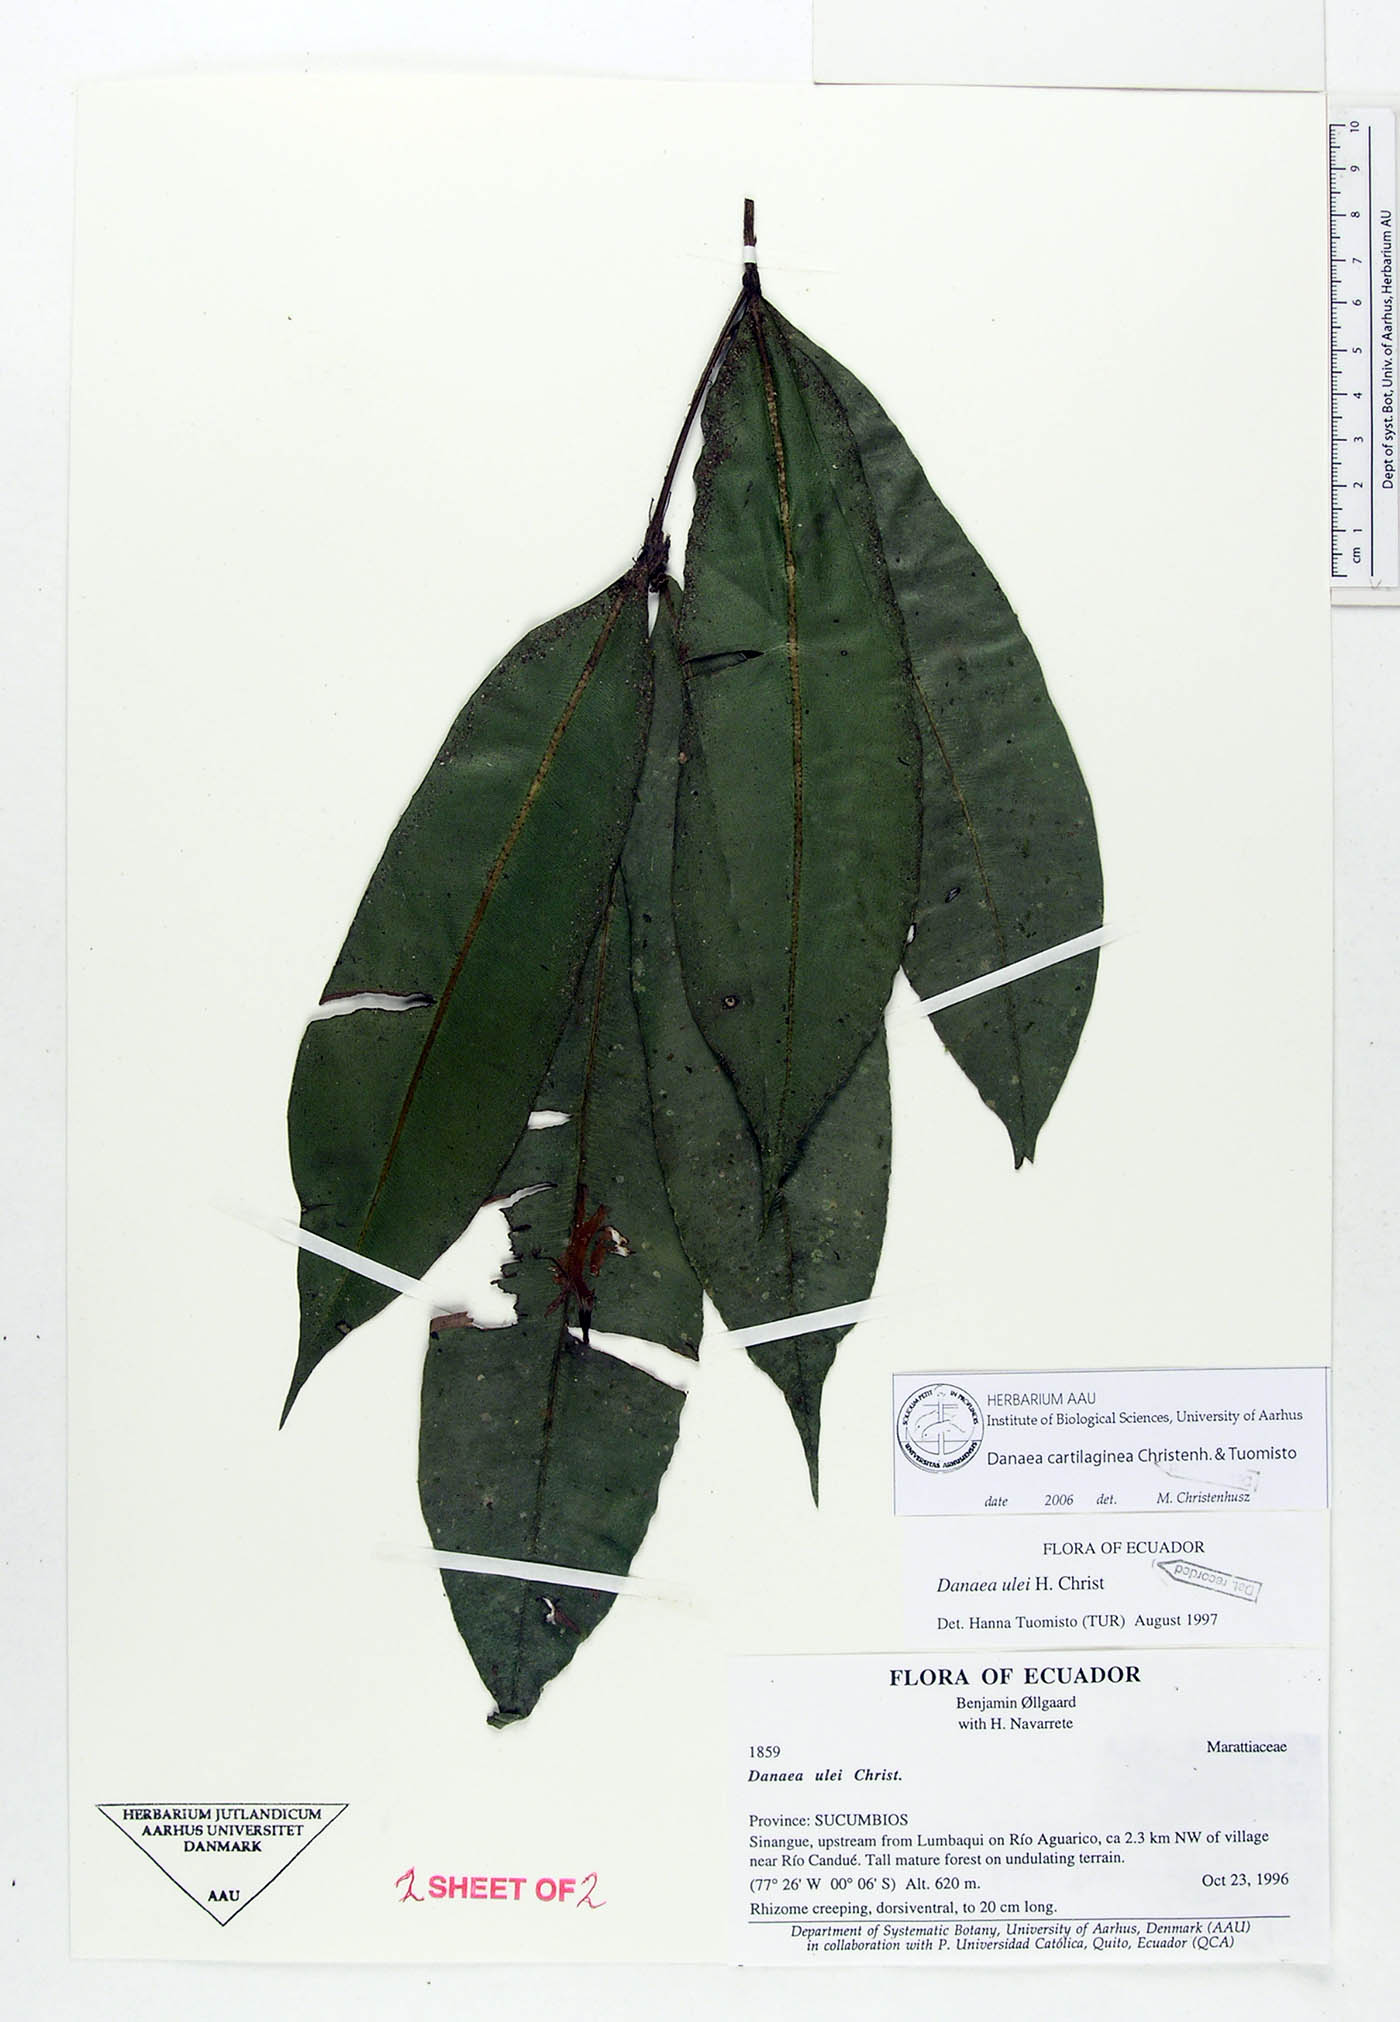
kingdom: Plantae
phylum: Tracheophyta
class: Polypodiopsida
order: Marattiales
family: Marattiaceae
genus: Danaea
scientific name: Danaea cartilaginea
